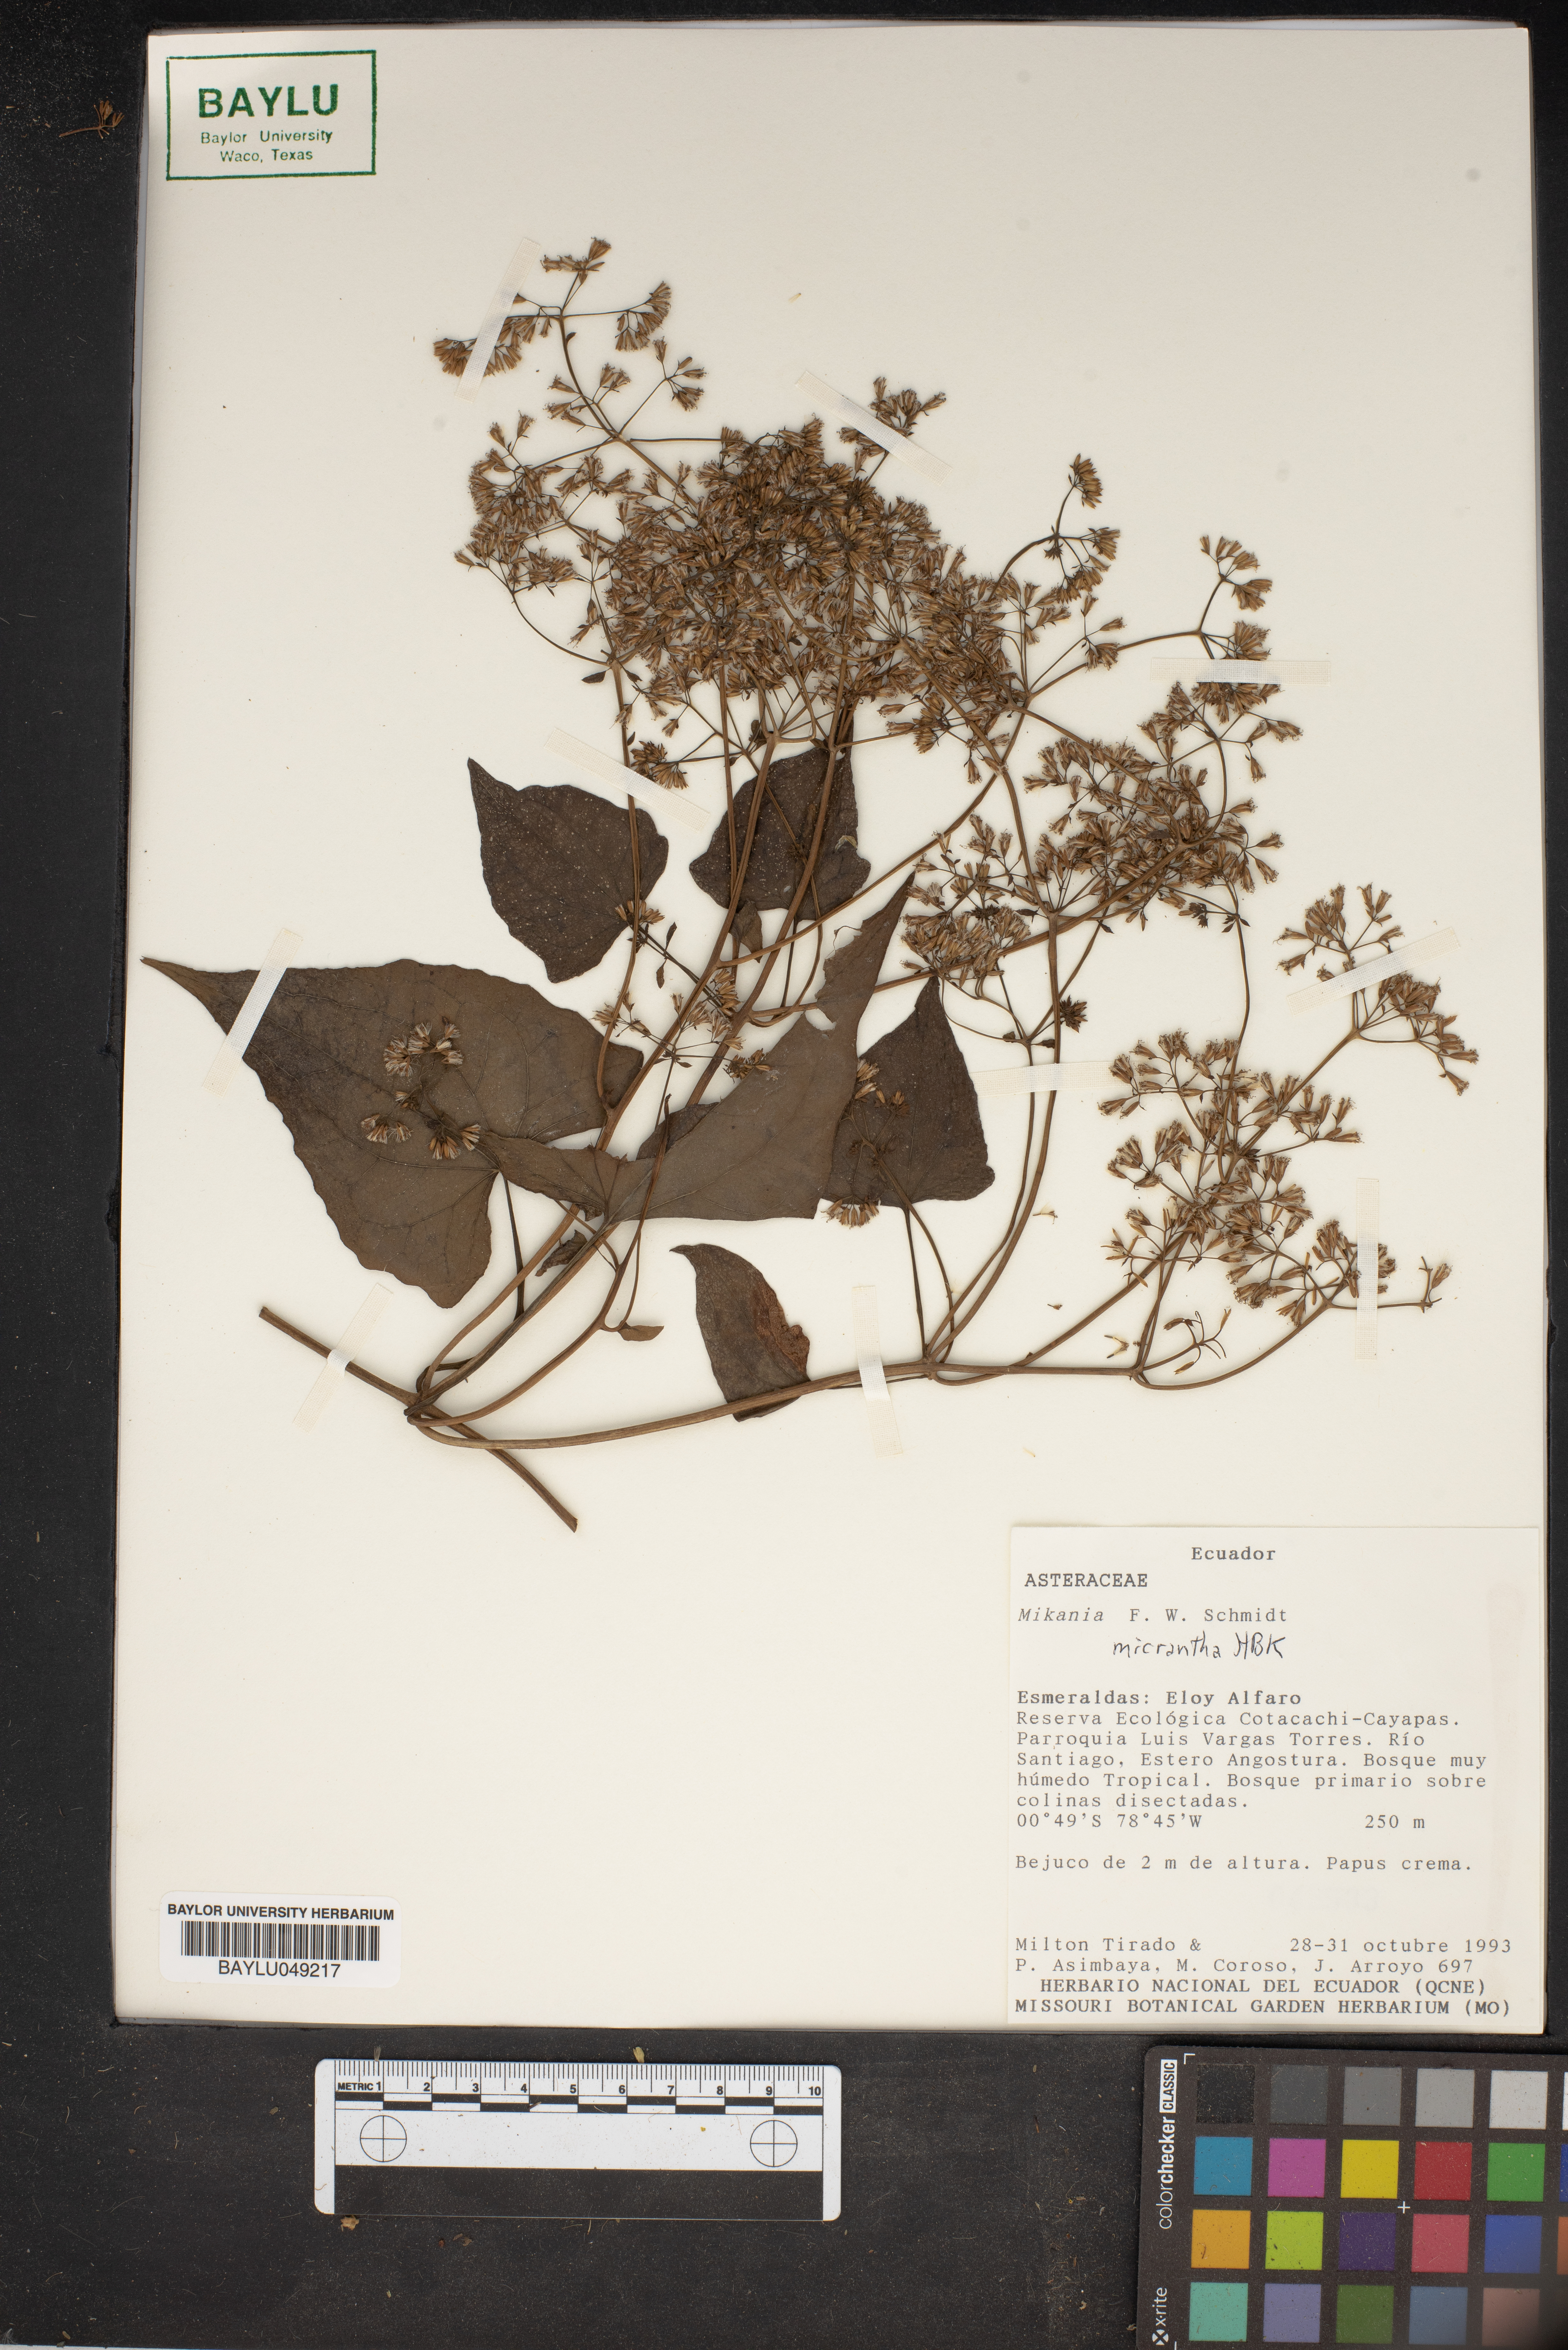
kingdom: Plantae
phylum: Tracheophyta
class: Magnoliopsida
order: Asterales
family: Asteraceae
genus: Mikania
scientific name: Mikania micrantha
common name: Mile-a-minute
